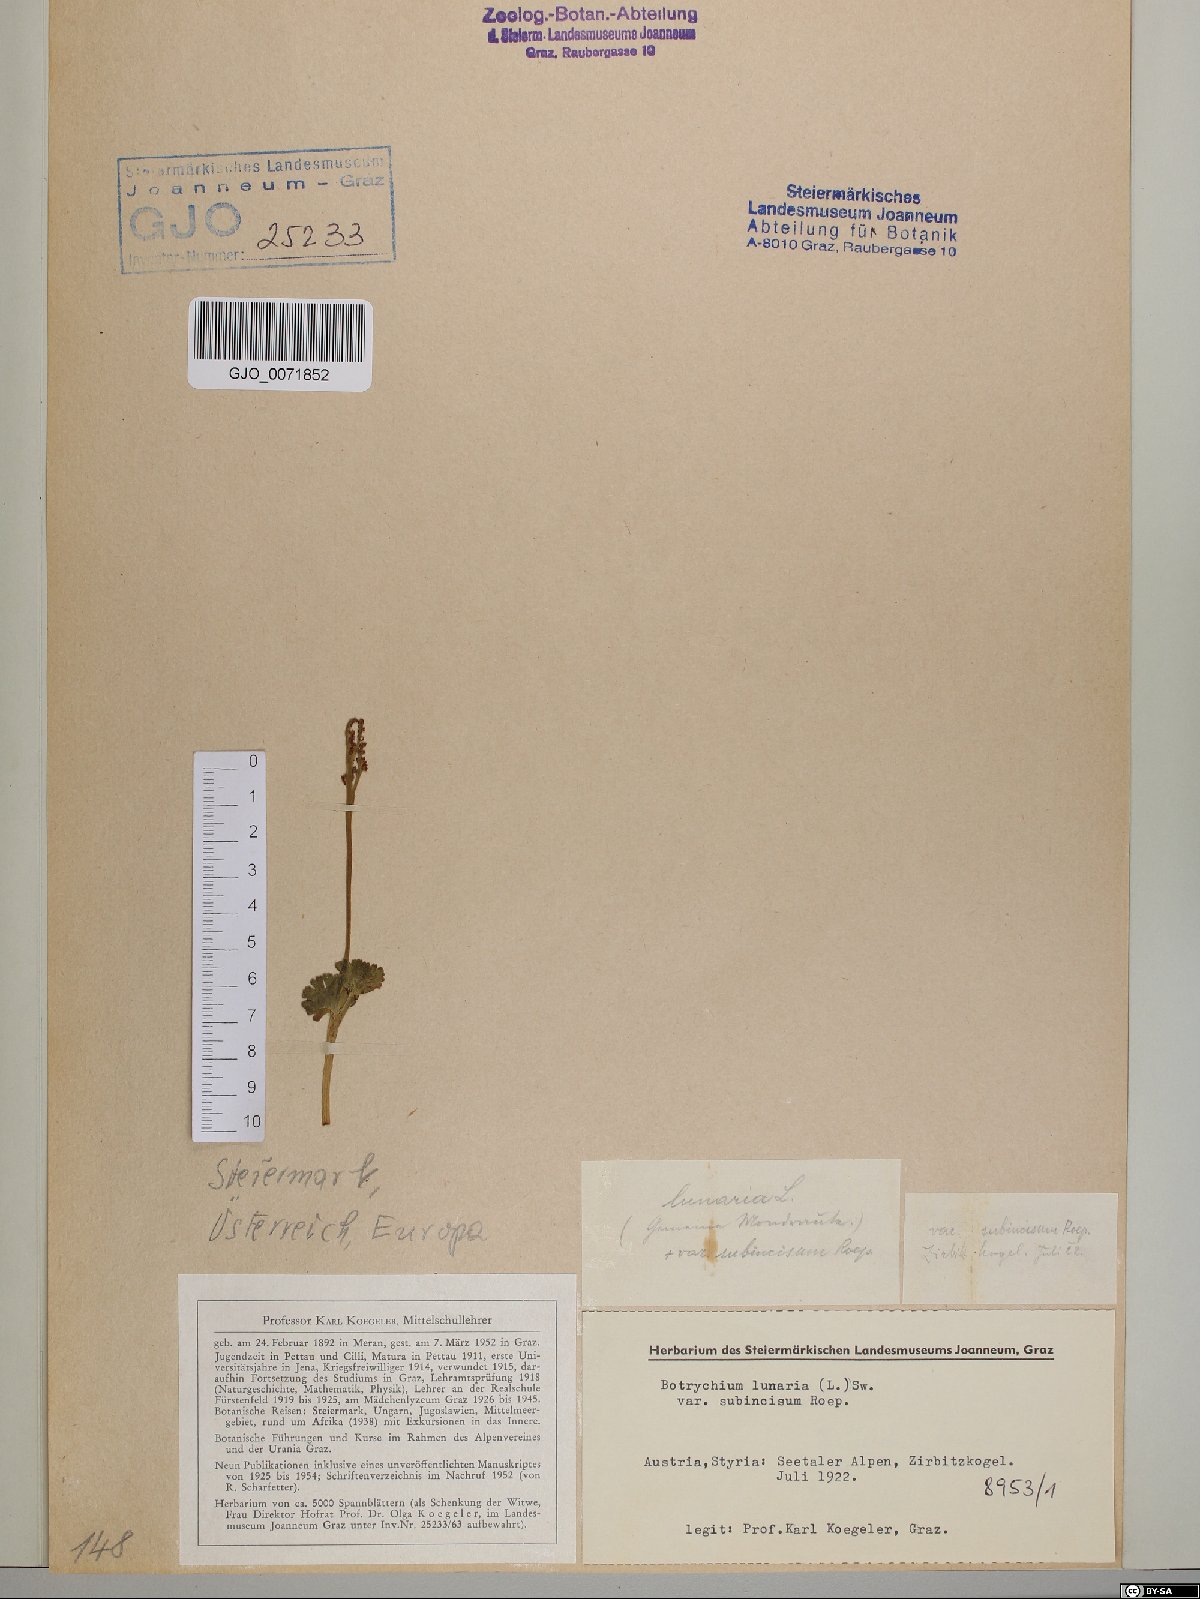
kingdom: Plantae
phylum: Tracheophyta
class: Polypodiopsida
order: Ophioglossales
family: Ophioglossaceae
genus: Botrychium
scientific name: Botrychium lunaria
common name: Moonwort
